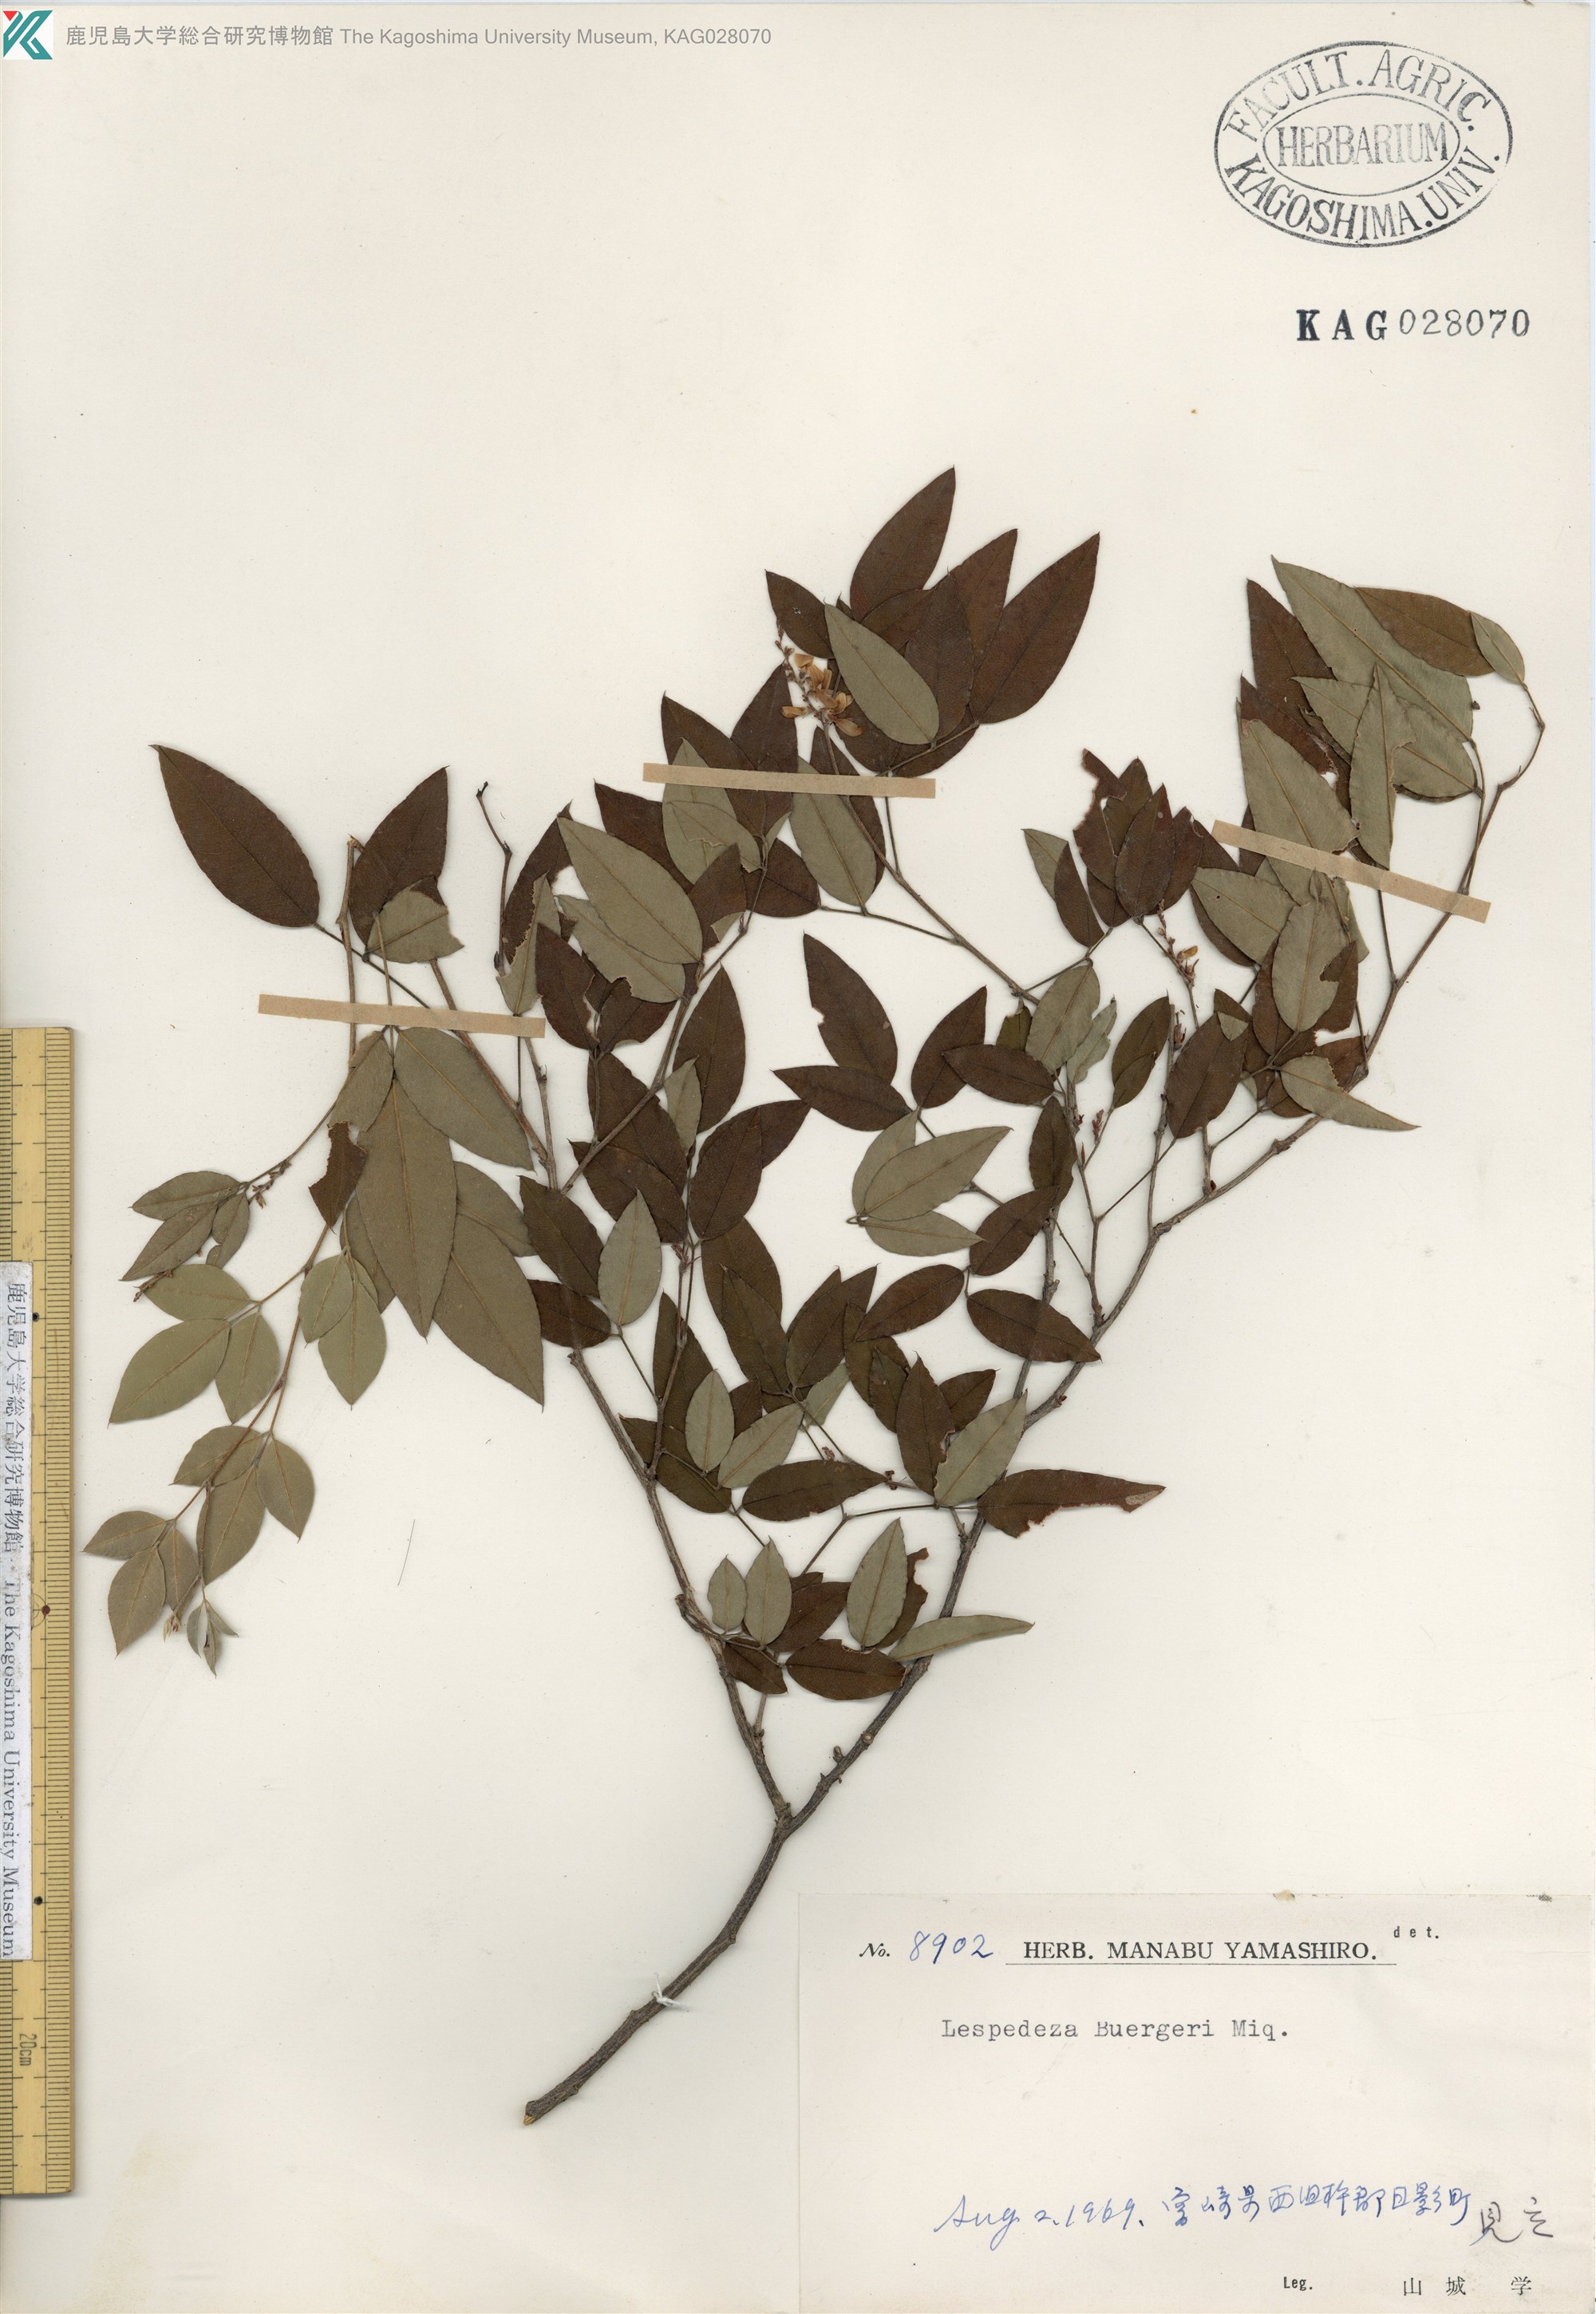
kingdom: Plantae
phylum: Tracheophyta
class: Magnoliopsida
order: Fabales
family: Fabaceae
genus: Lespedeza
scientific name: Lespedeza buergeri
